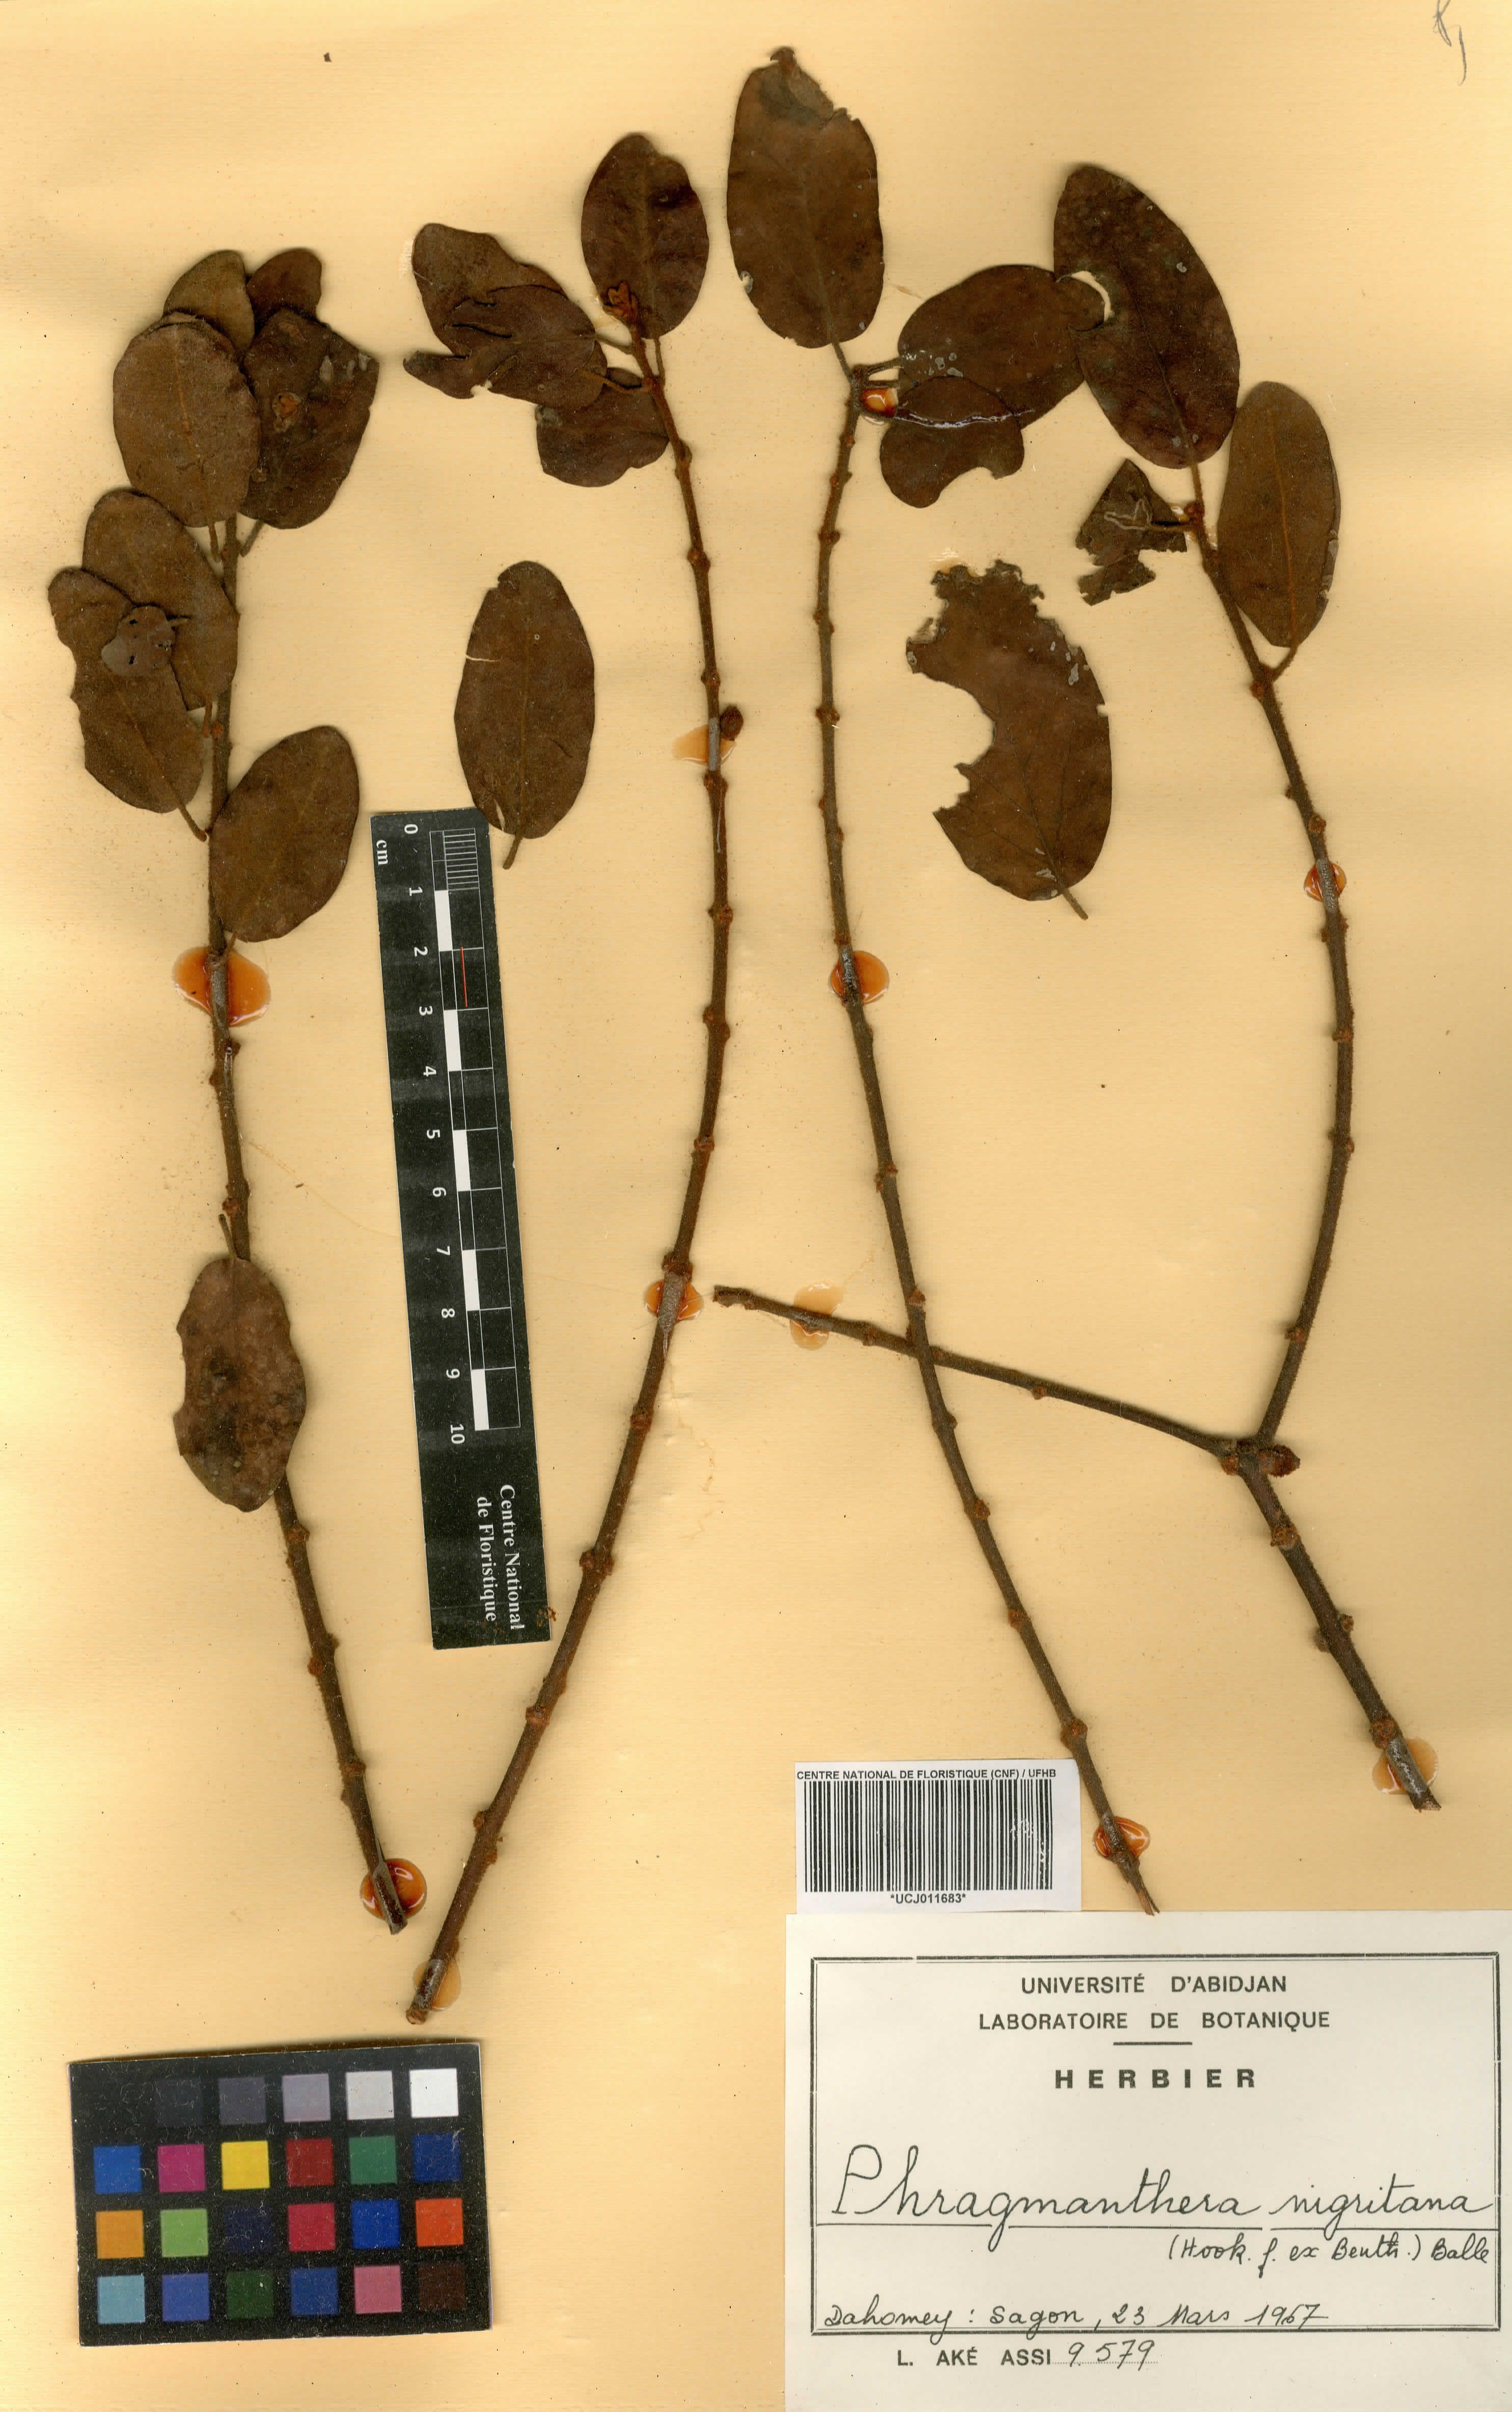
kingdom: Plantae
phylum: Tracheophyta
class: Magnoliopsida
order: Santalales
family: Loranthaceae
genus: Phragmanthera
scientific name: Phragmanthera nigritana
